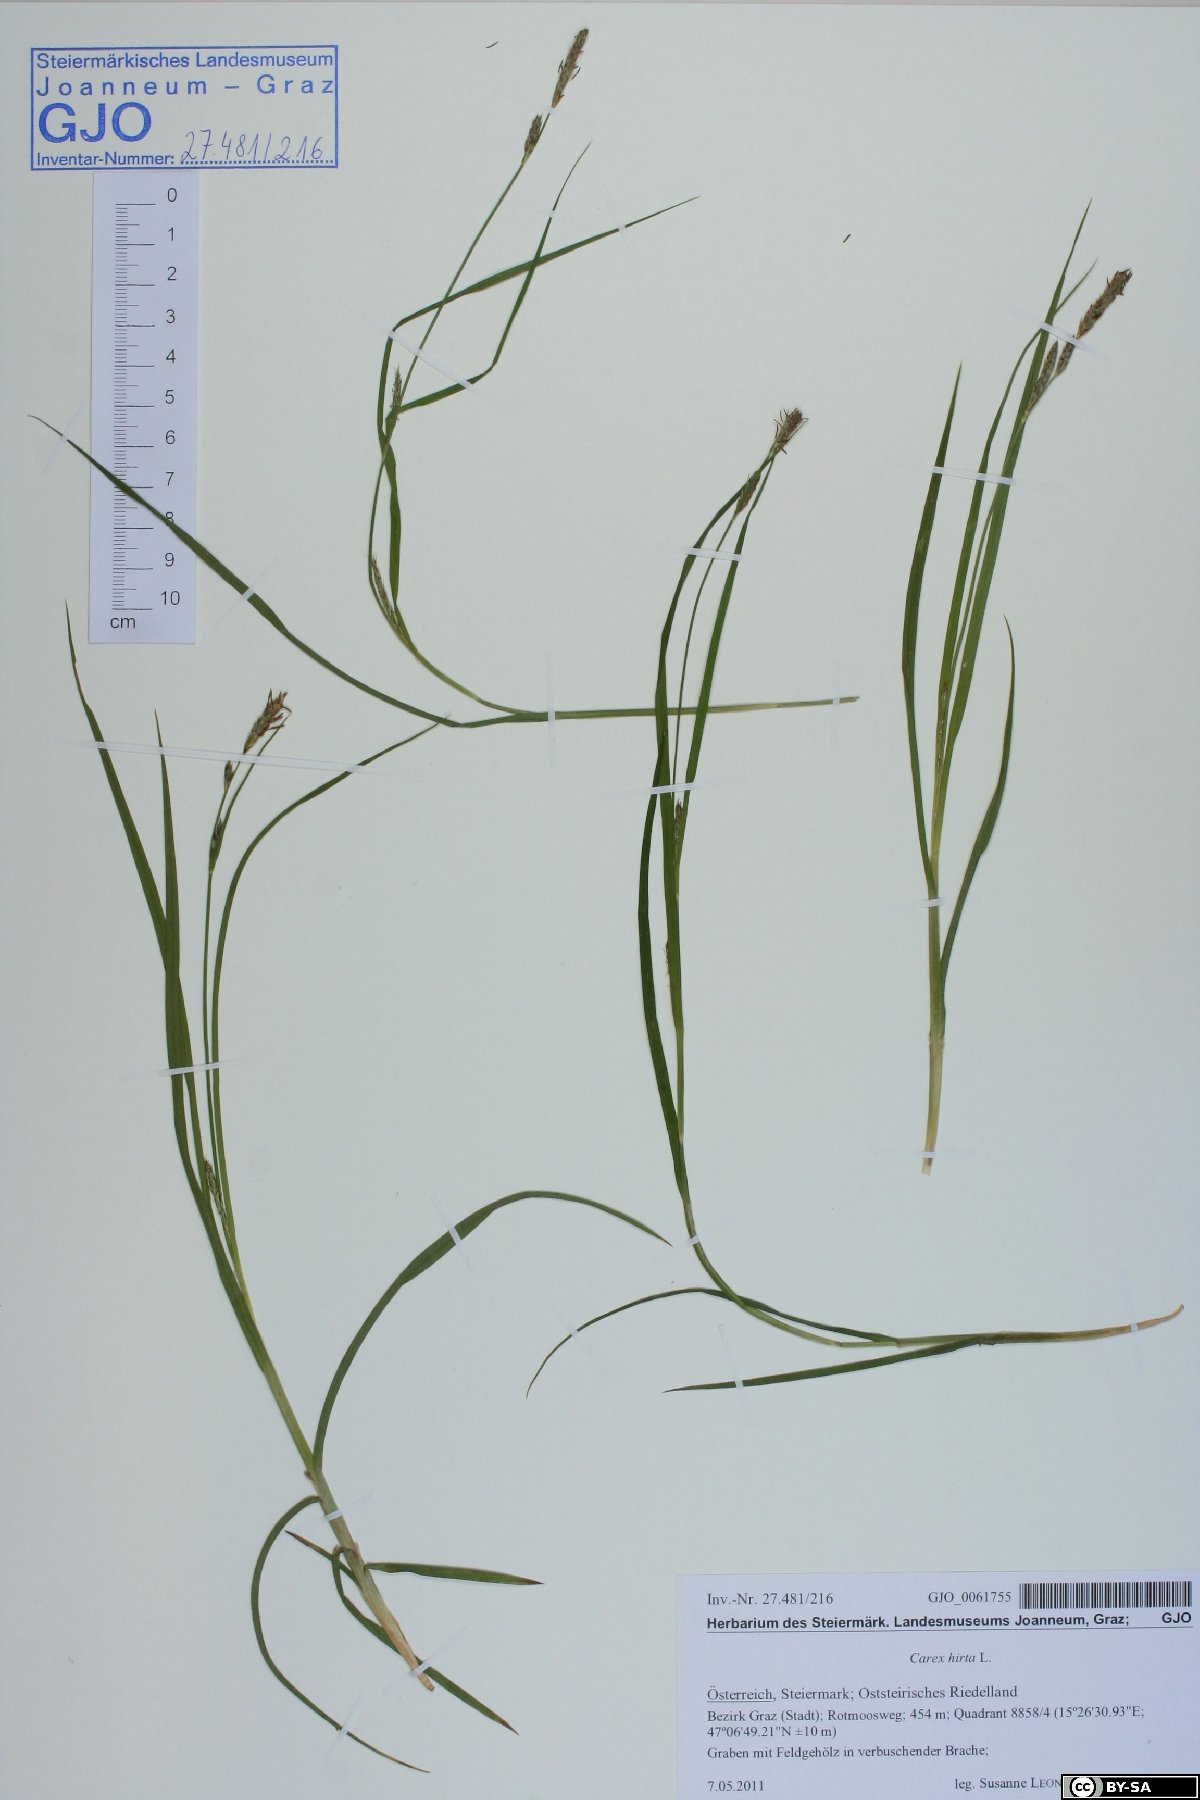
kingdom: Plantae
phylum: Tracheophyta
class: Liliopsida
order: Poales
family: Cyperaceae
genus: Carex
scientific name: Carex hirta
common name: Hairy sedge
